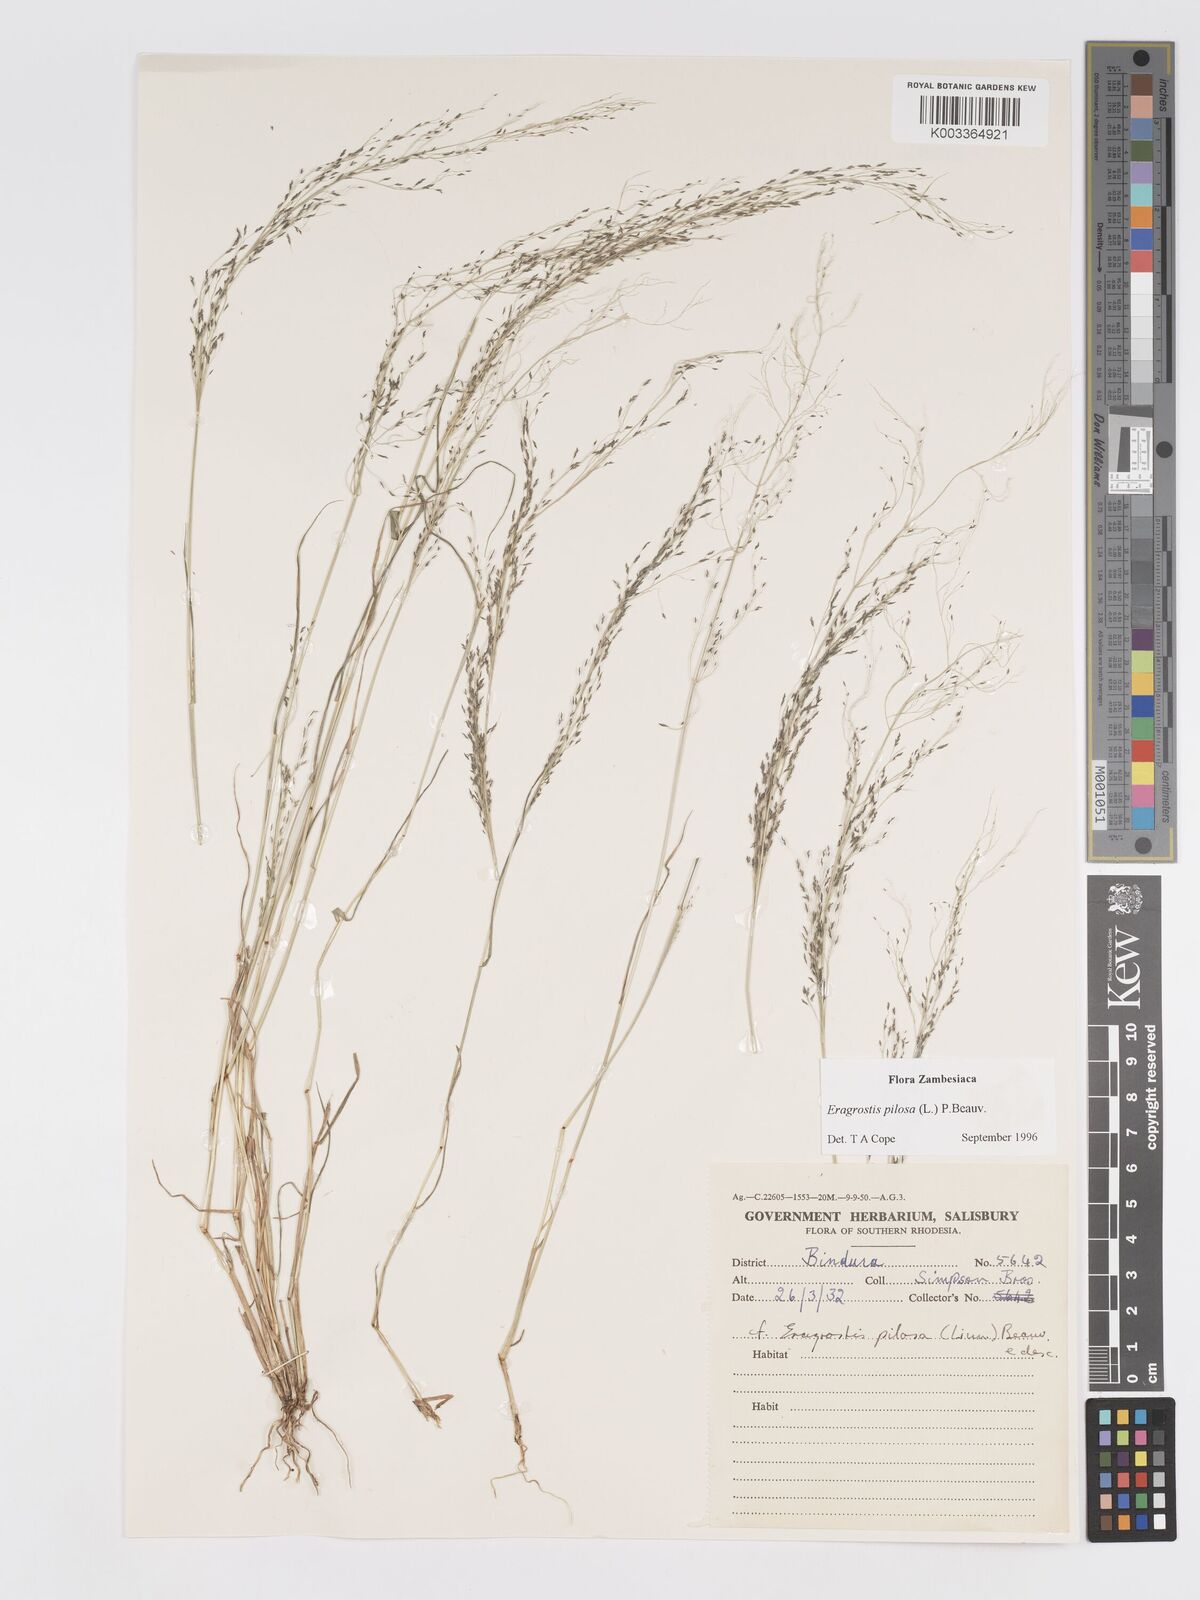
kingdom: Plantae
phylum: Tracheophyta
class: Liliopsida
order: Poales
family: Poaceae
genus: Eragrostis
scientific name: Eragrostis pilosa
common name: Indian lovegrass
